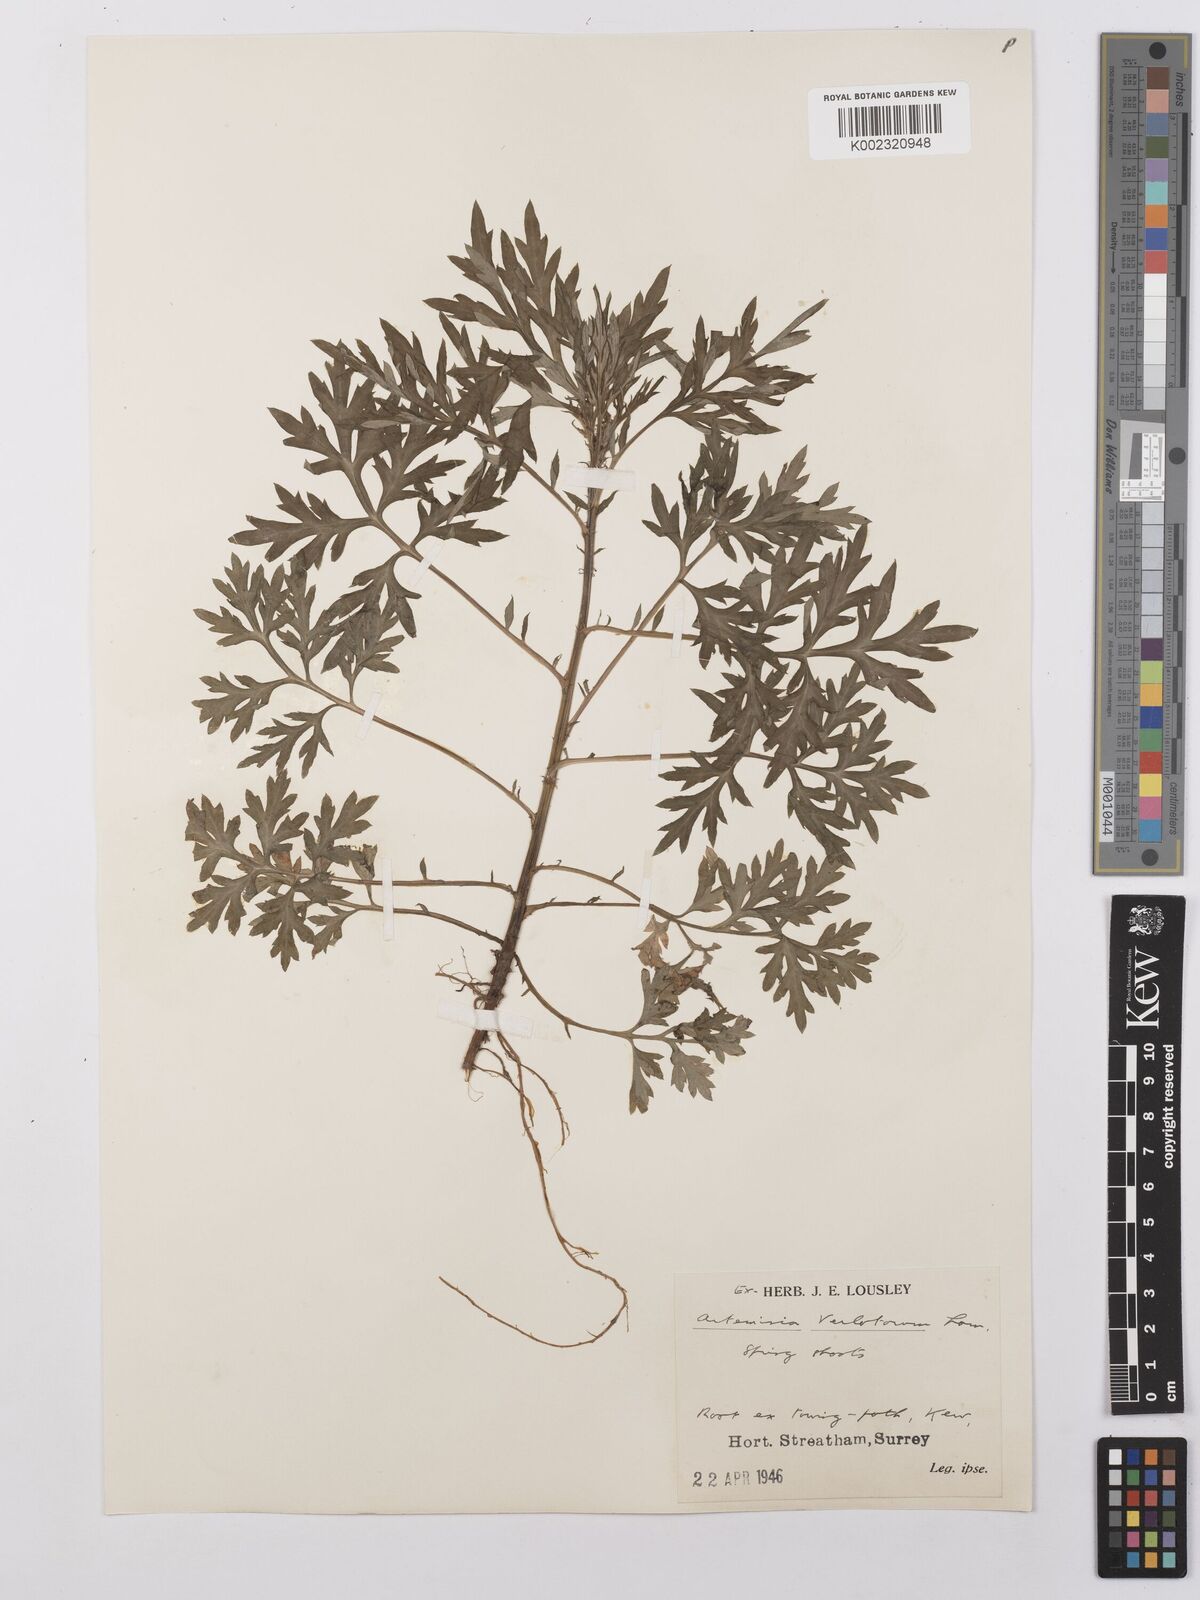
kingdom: Plantae
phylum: Tracheophyta
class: Magnoliopsida
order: Asterales
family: Asteraceae
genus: Artemisia
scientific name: Artemisia verlotiorum
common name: Chinese mugwort
